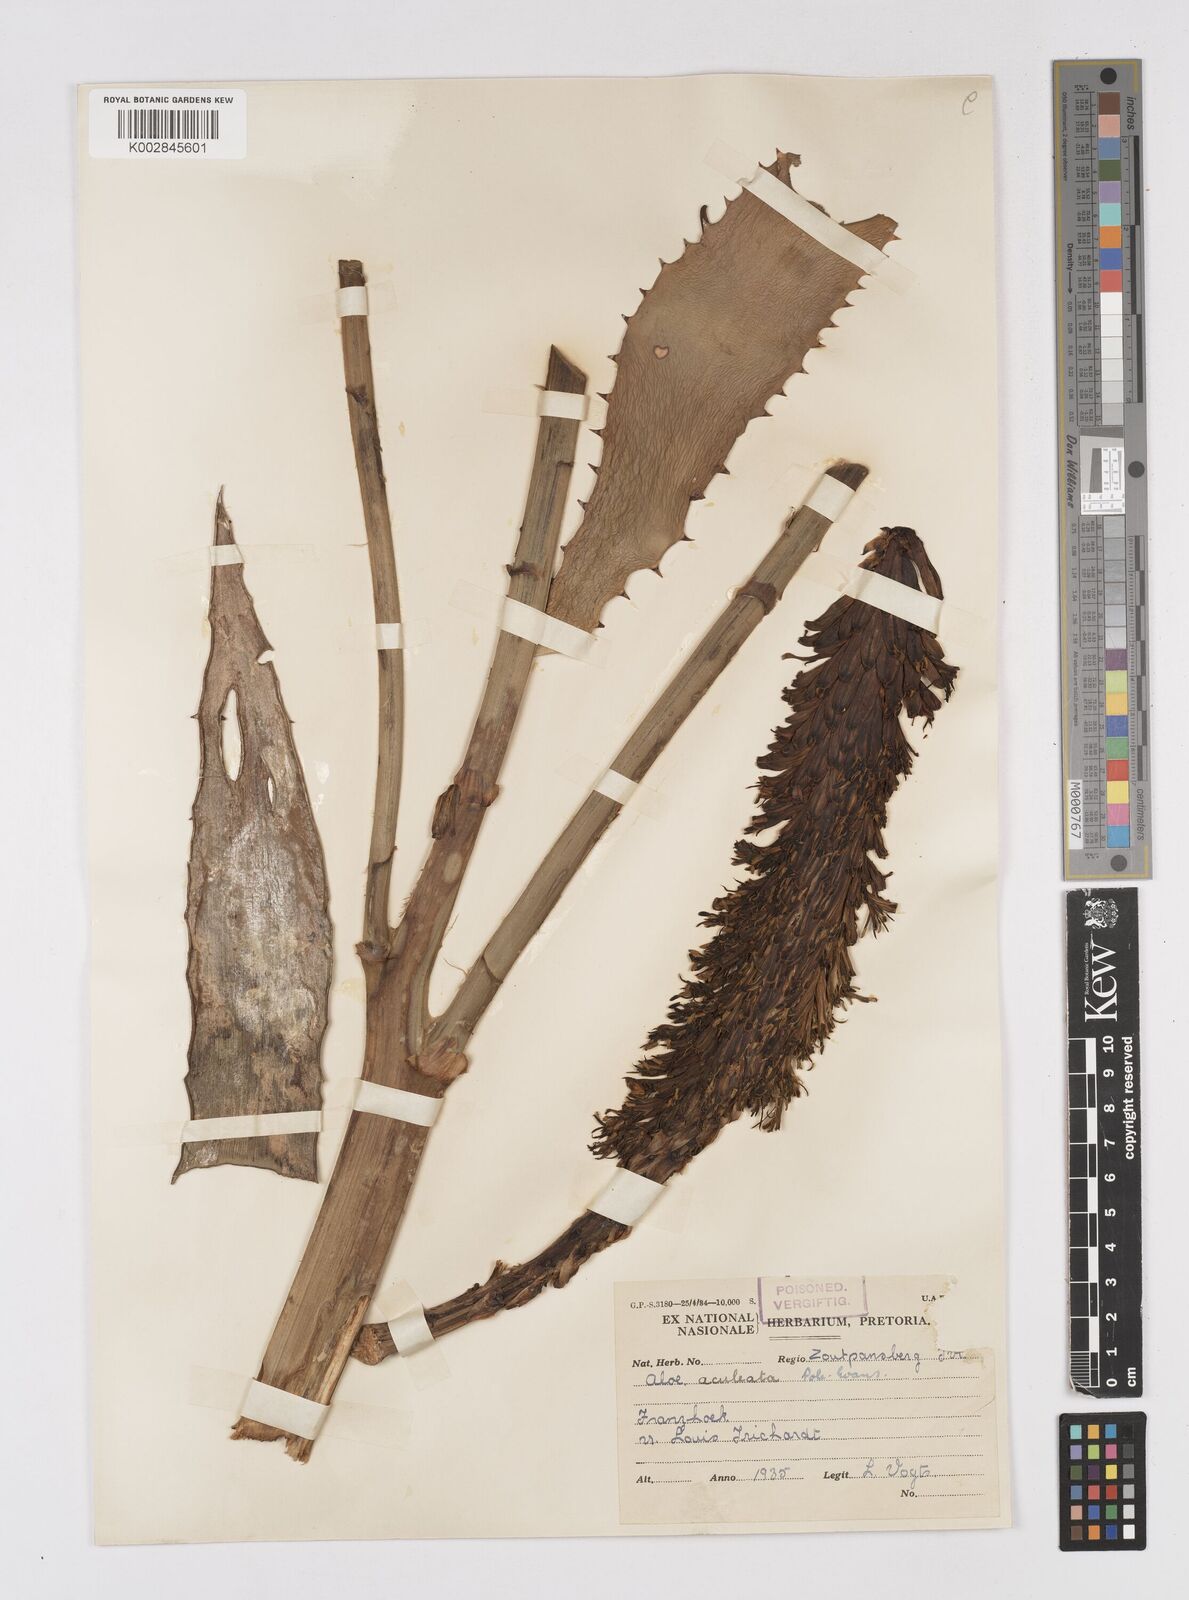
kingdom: Plantae
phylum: Tracheophyta
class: Liliopsida
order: Asparagales
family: Asphodelaceae
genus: Aloe
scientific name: Aloe aculeata
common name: Red hot poker aloe
